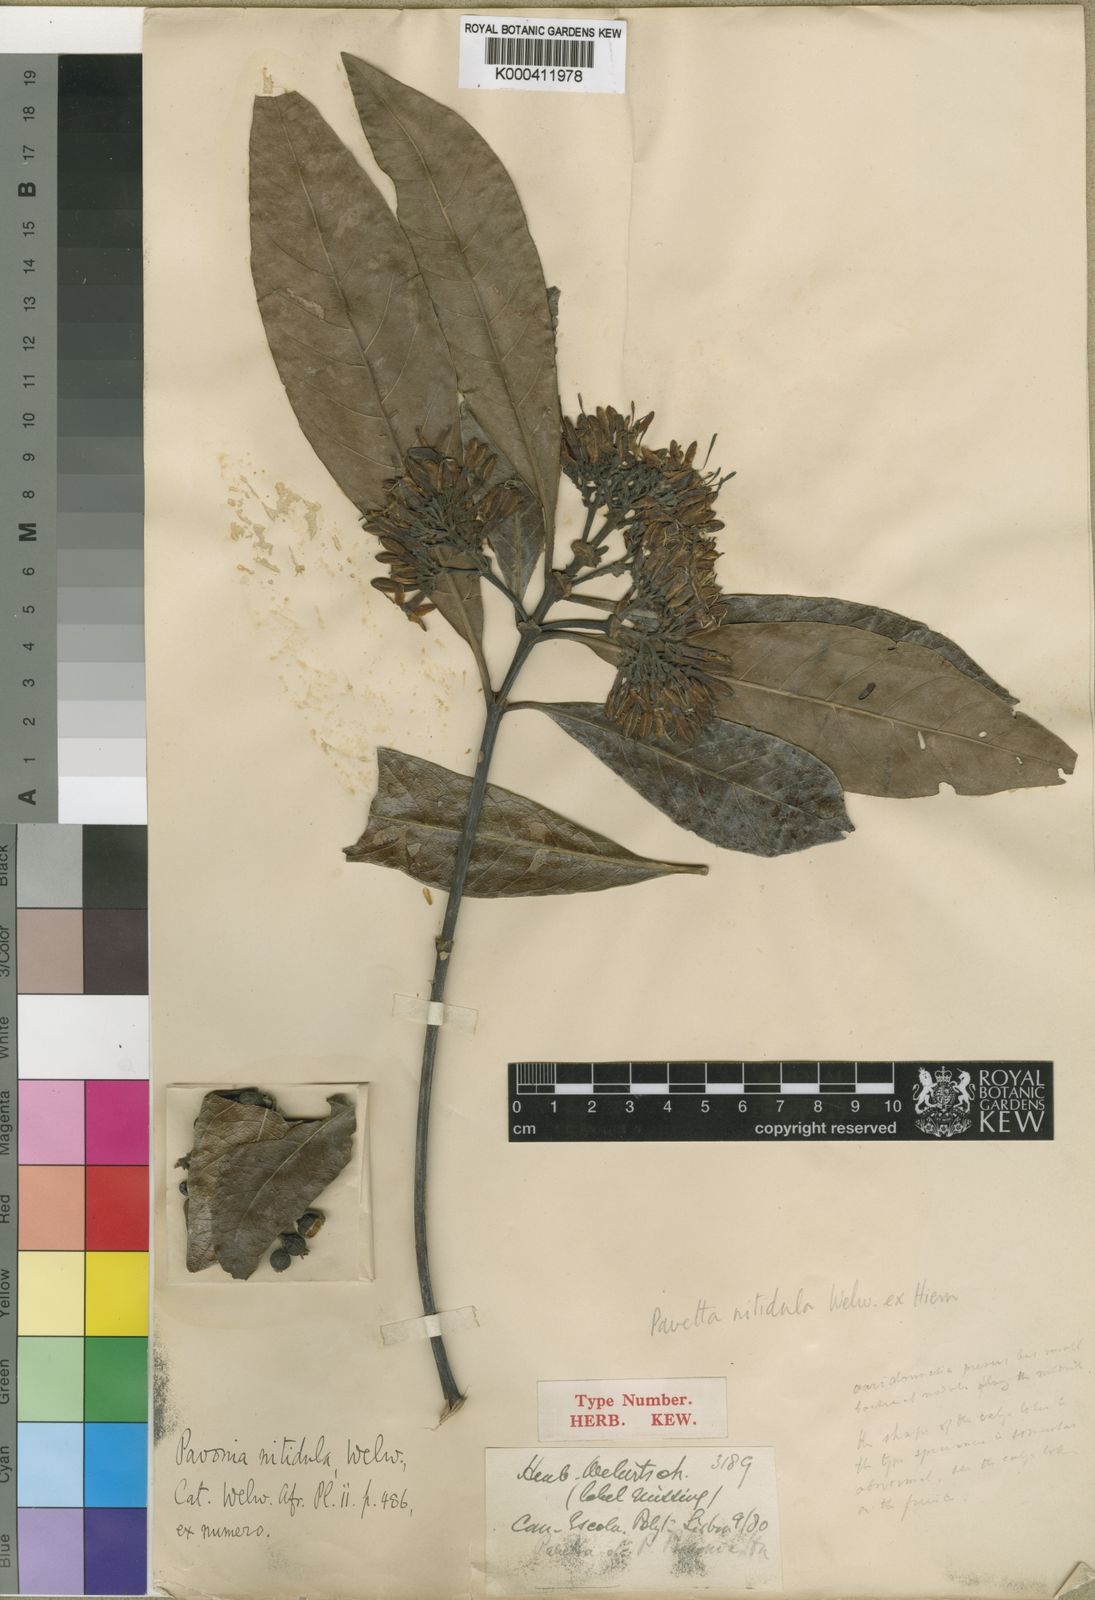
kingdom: Plantae
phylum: Tracheophyta
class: Magnoliopsida
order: Gentianales
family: Rubiaceae
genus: Pavetta
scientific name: Pavetta corymbosa
